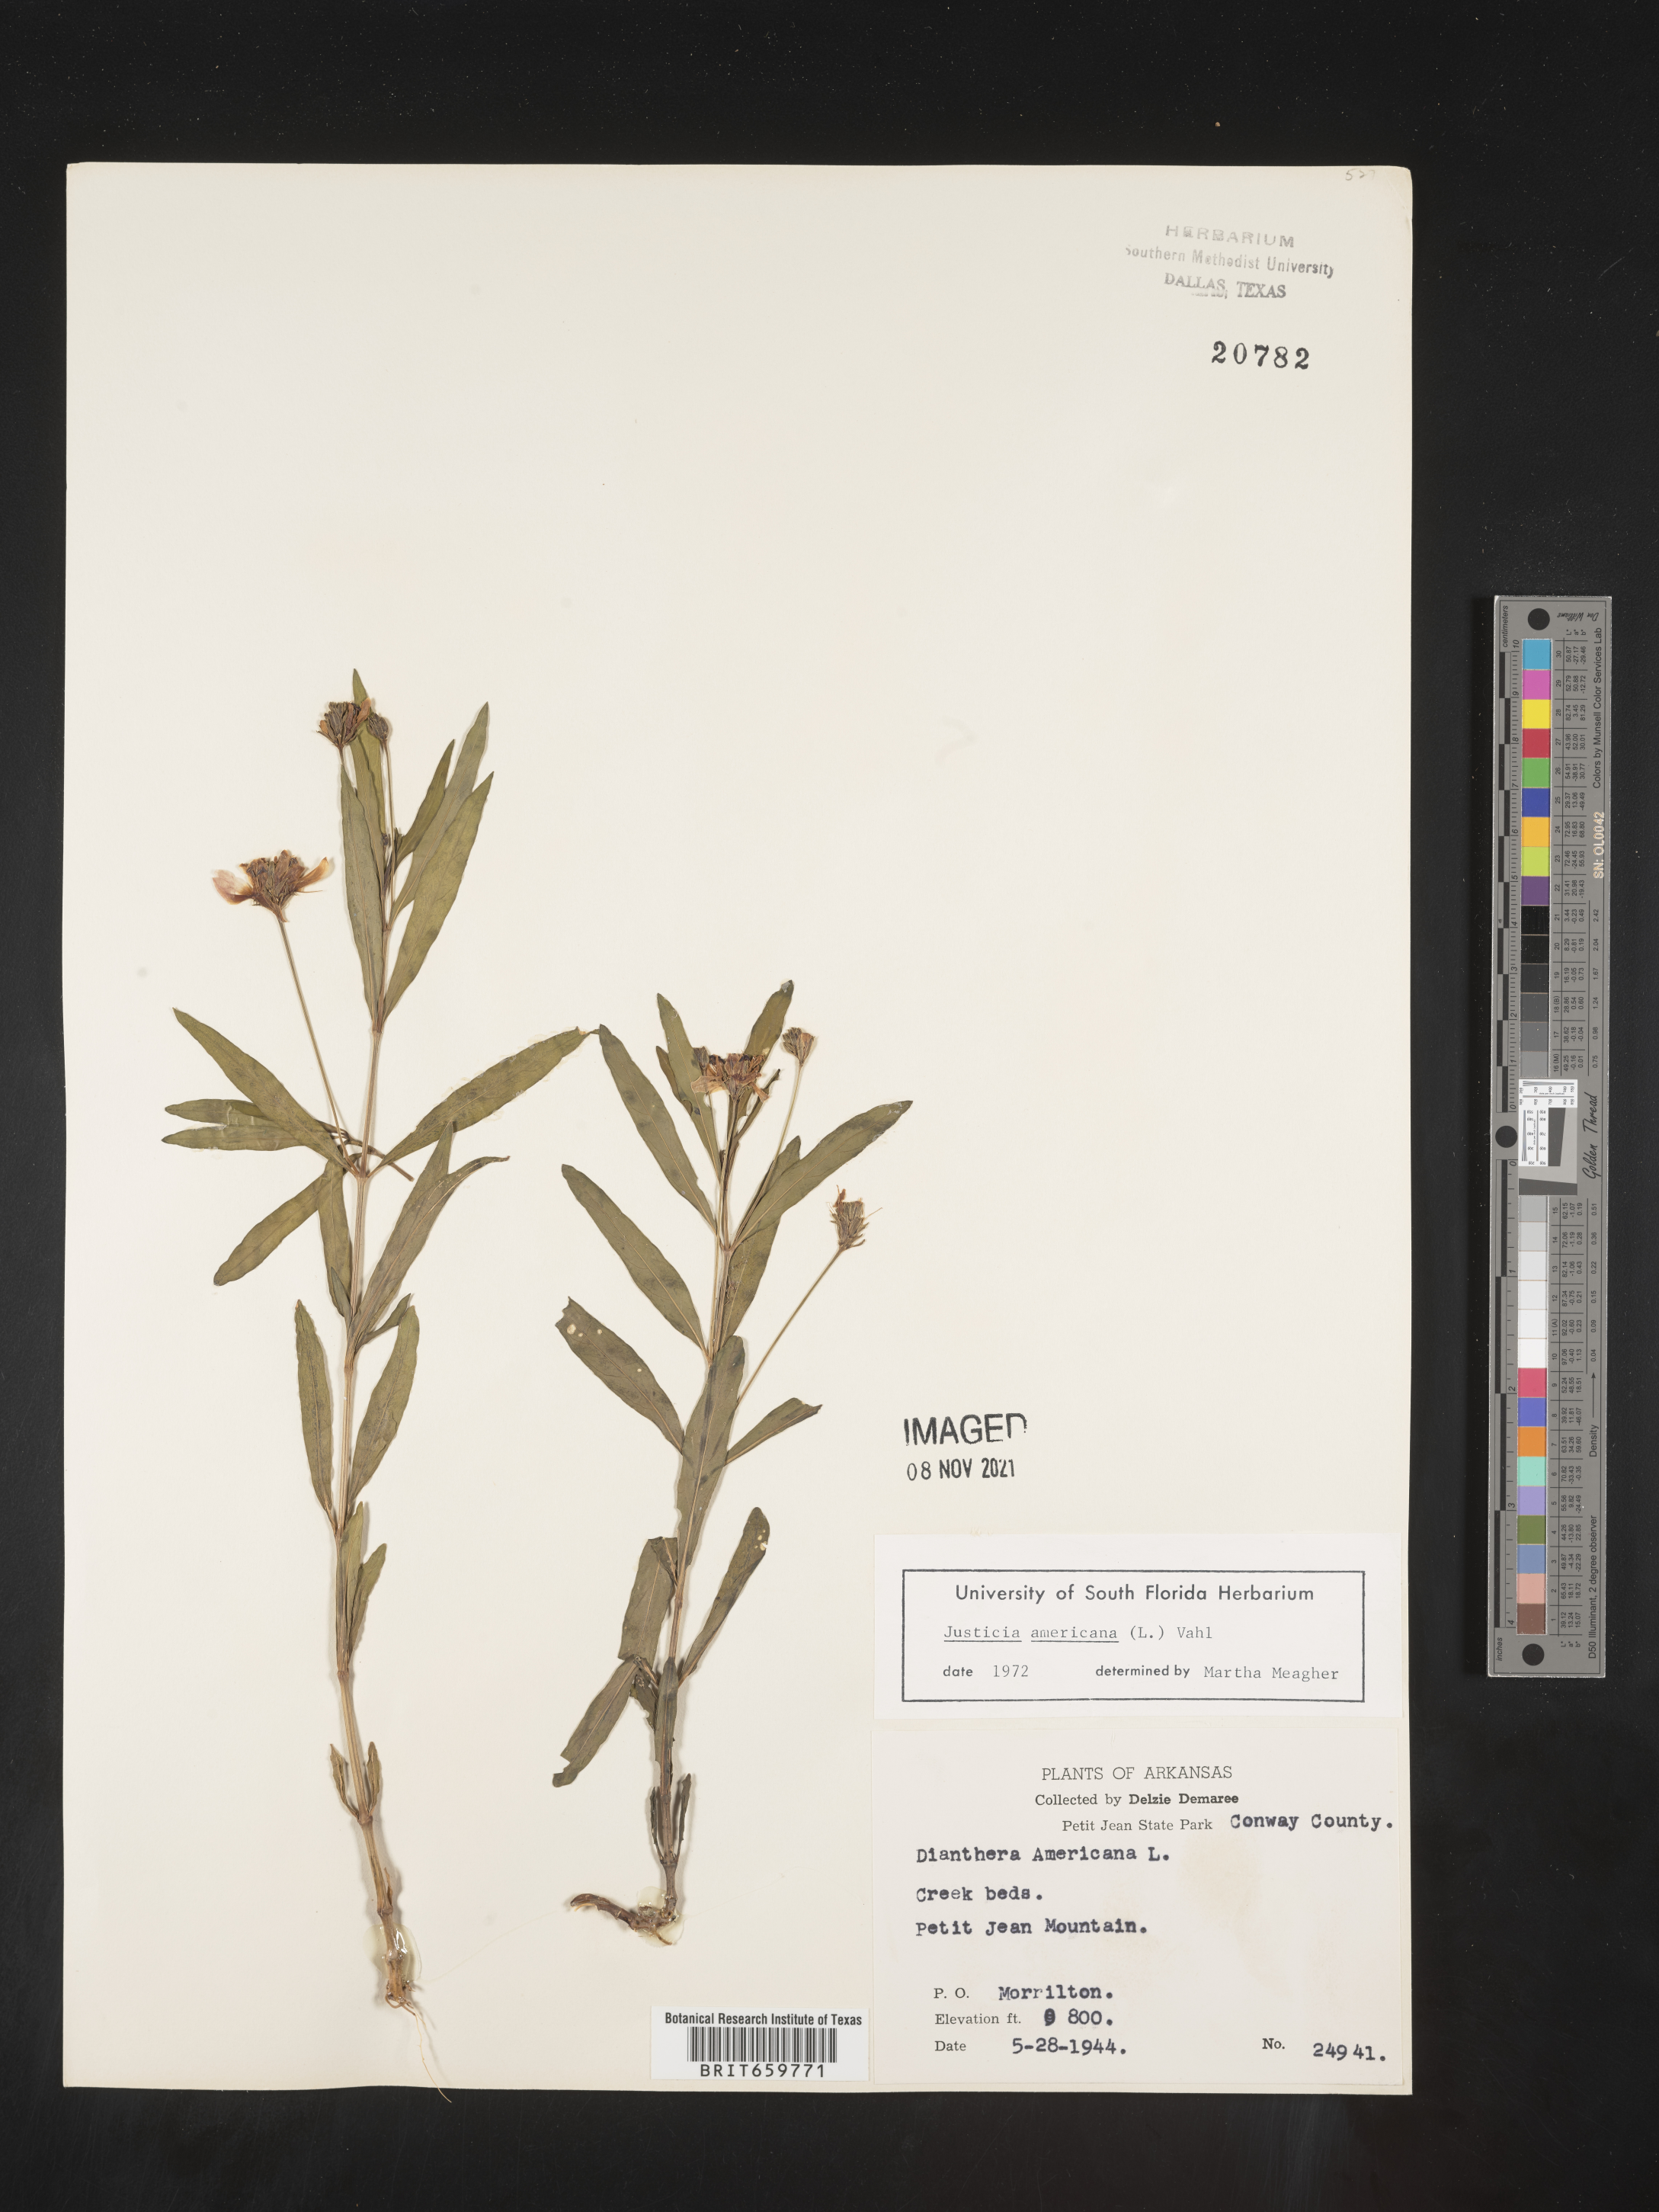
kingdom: Plantae
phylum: Tracheophyta
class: Magnoliopsida
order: Lamiales
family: Acanthaceae
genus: Dianthera
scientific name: Dianthera americana
